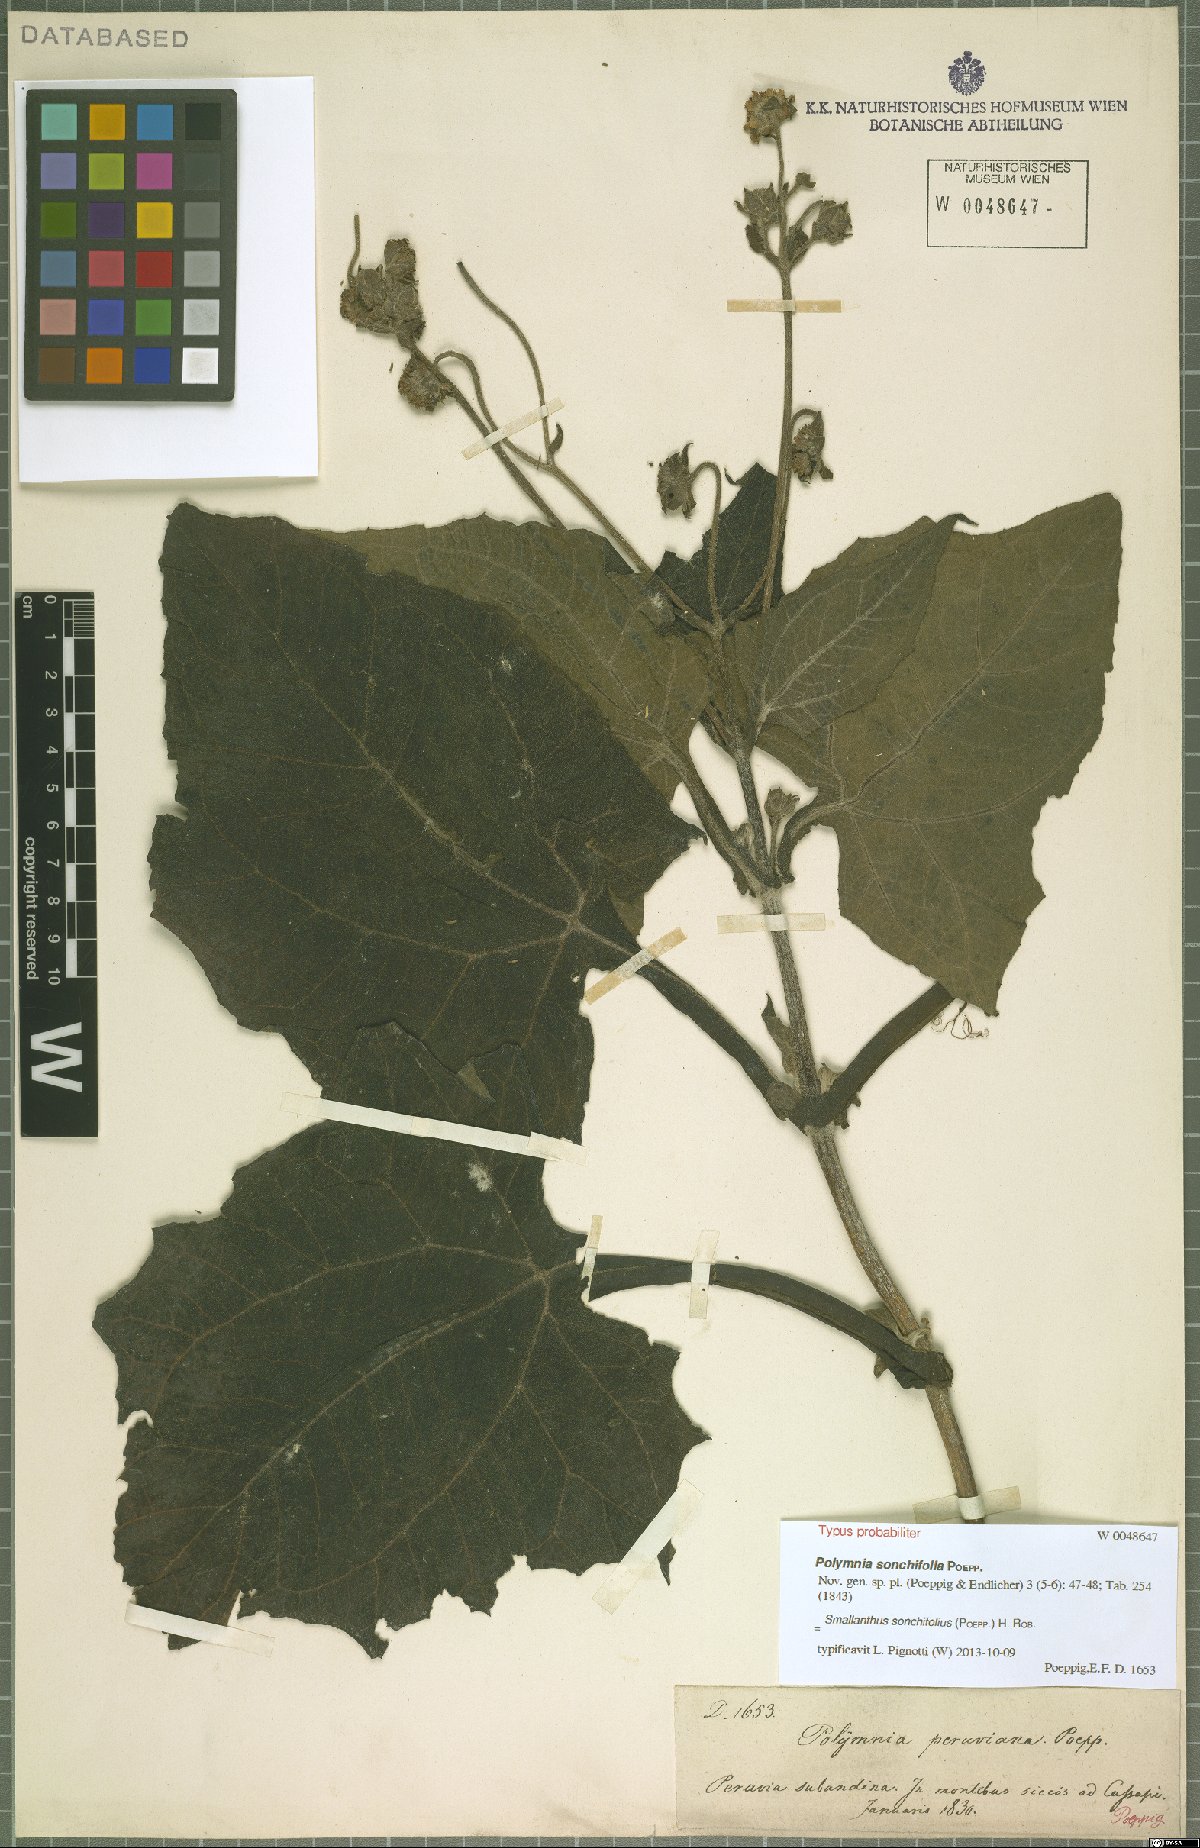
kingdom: Plantae
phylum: Tracheophyta
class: Magnoliopsida
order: Asterales
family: Asteraceae
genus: Smallanthus
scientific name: Smallanthus sonchifolius
